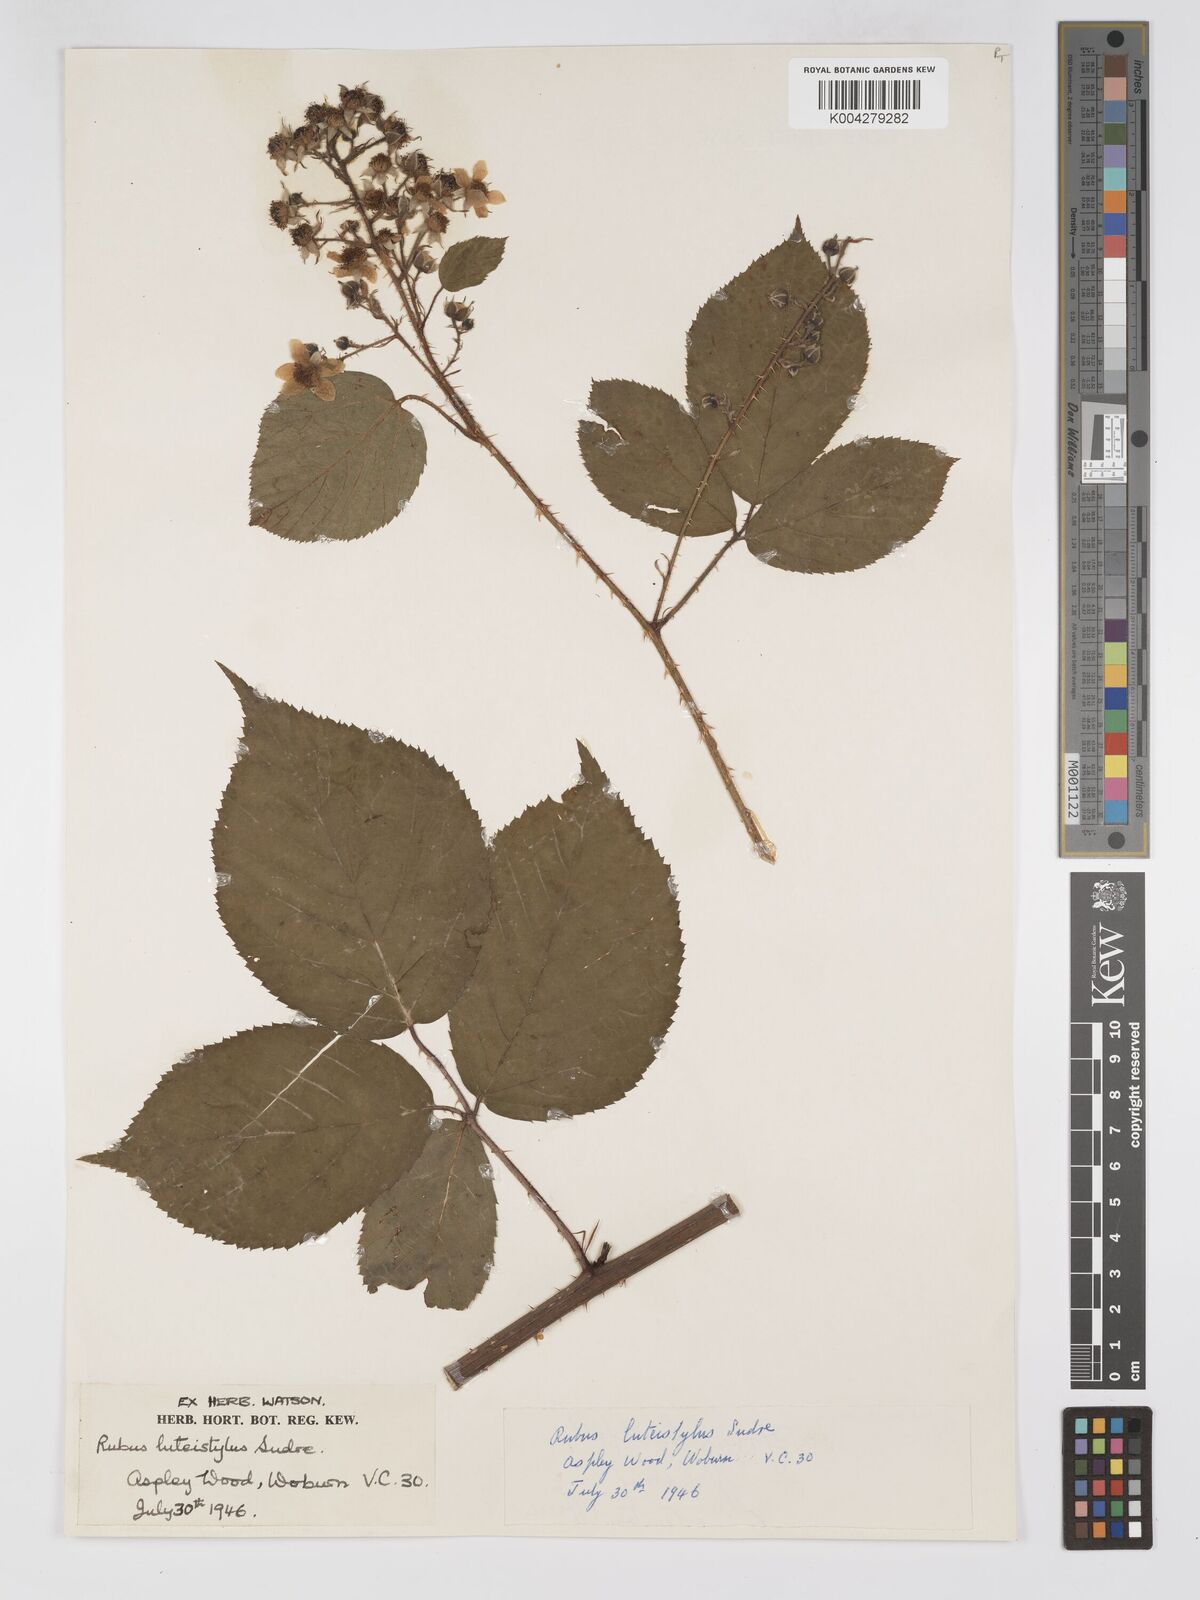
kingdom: Plantae
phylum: Tracheophyta
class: Magnoliopsida
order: Rosales
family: Rosaceae
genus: Rubus
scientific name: Rubus
